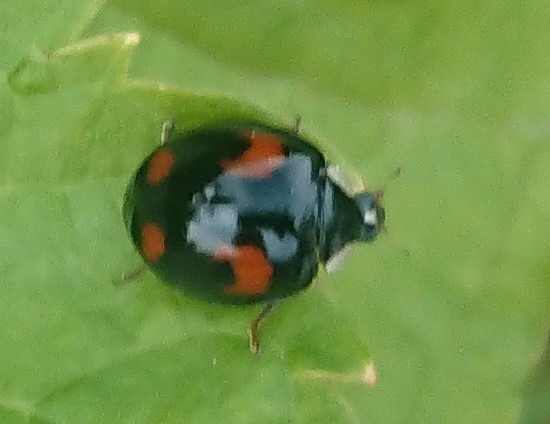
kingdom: Animalia
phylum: Arthropoda
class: Insecta
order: Coleoptera
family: Coccinellidae
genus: Harmonia
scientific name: Harmonia axyridis
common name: Harlekinmariehøne
